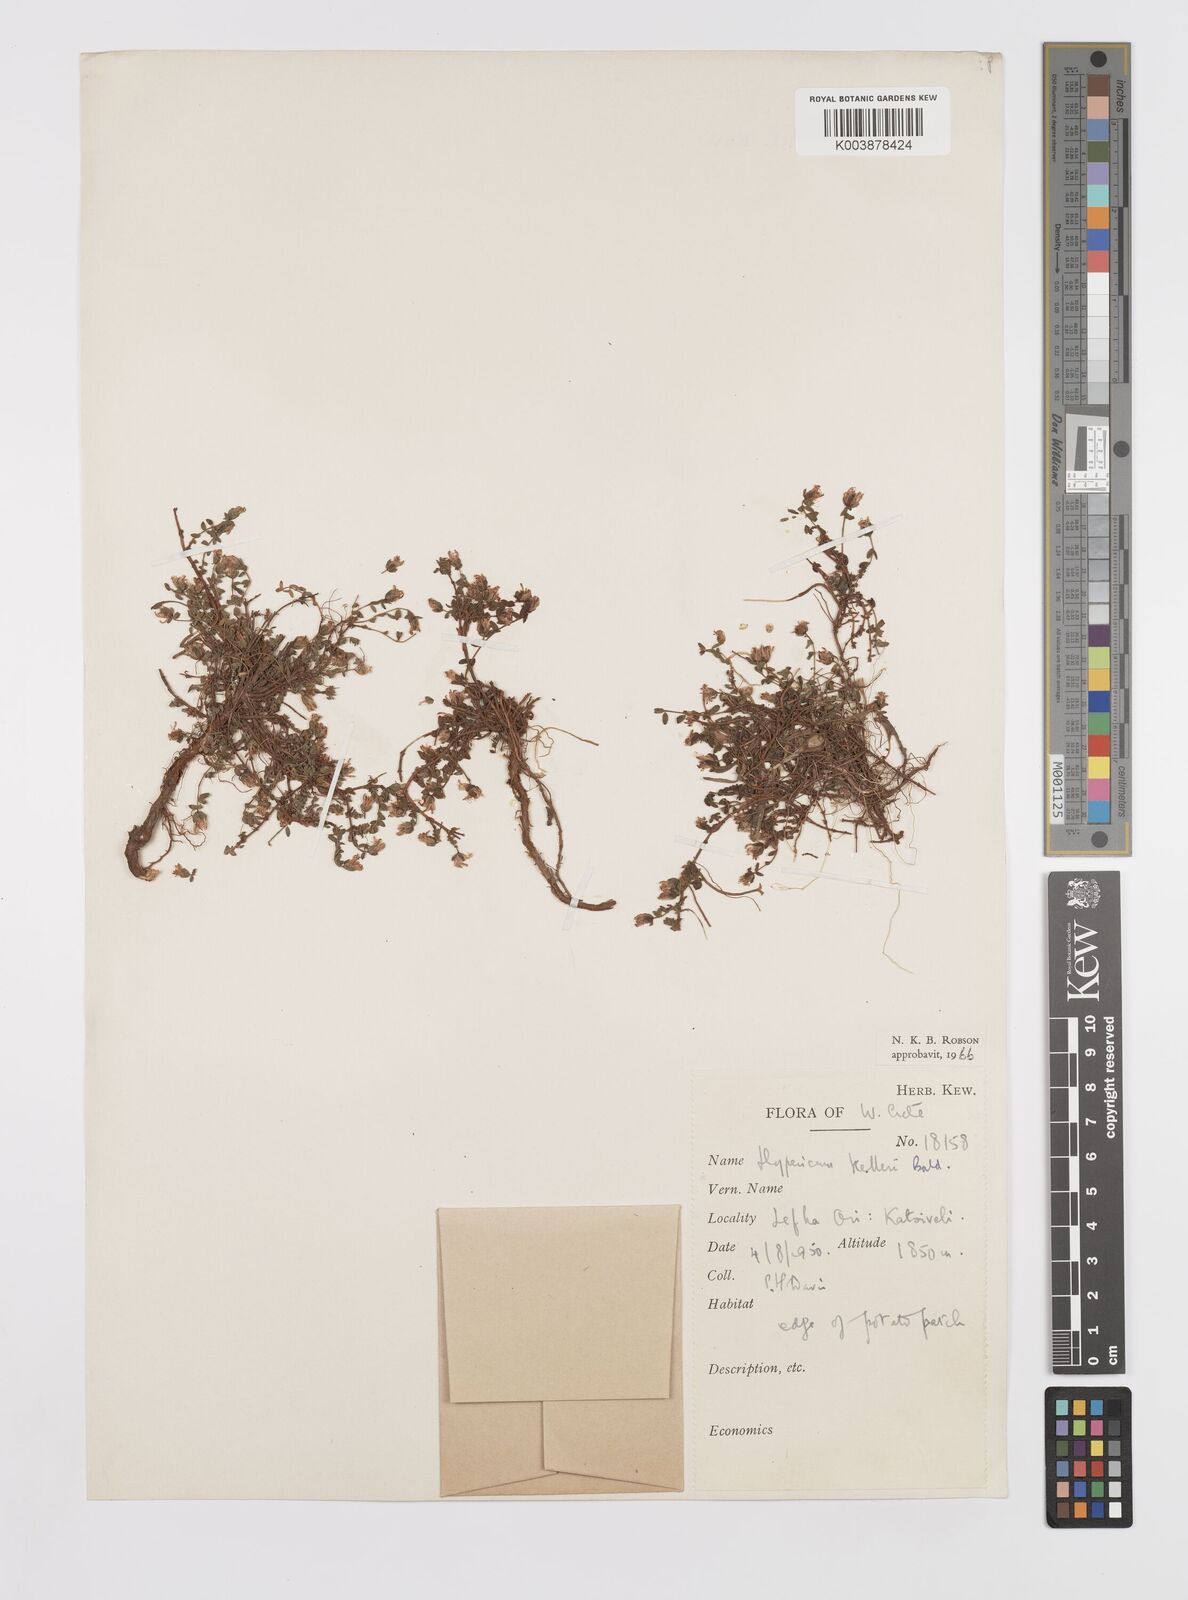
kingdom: Plantae
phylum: Tracheophyta
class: Magnoliopsida
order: Malpighiales
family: Hypericaceae
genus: Hypericum
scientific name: Hypericum kelleri
